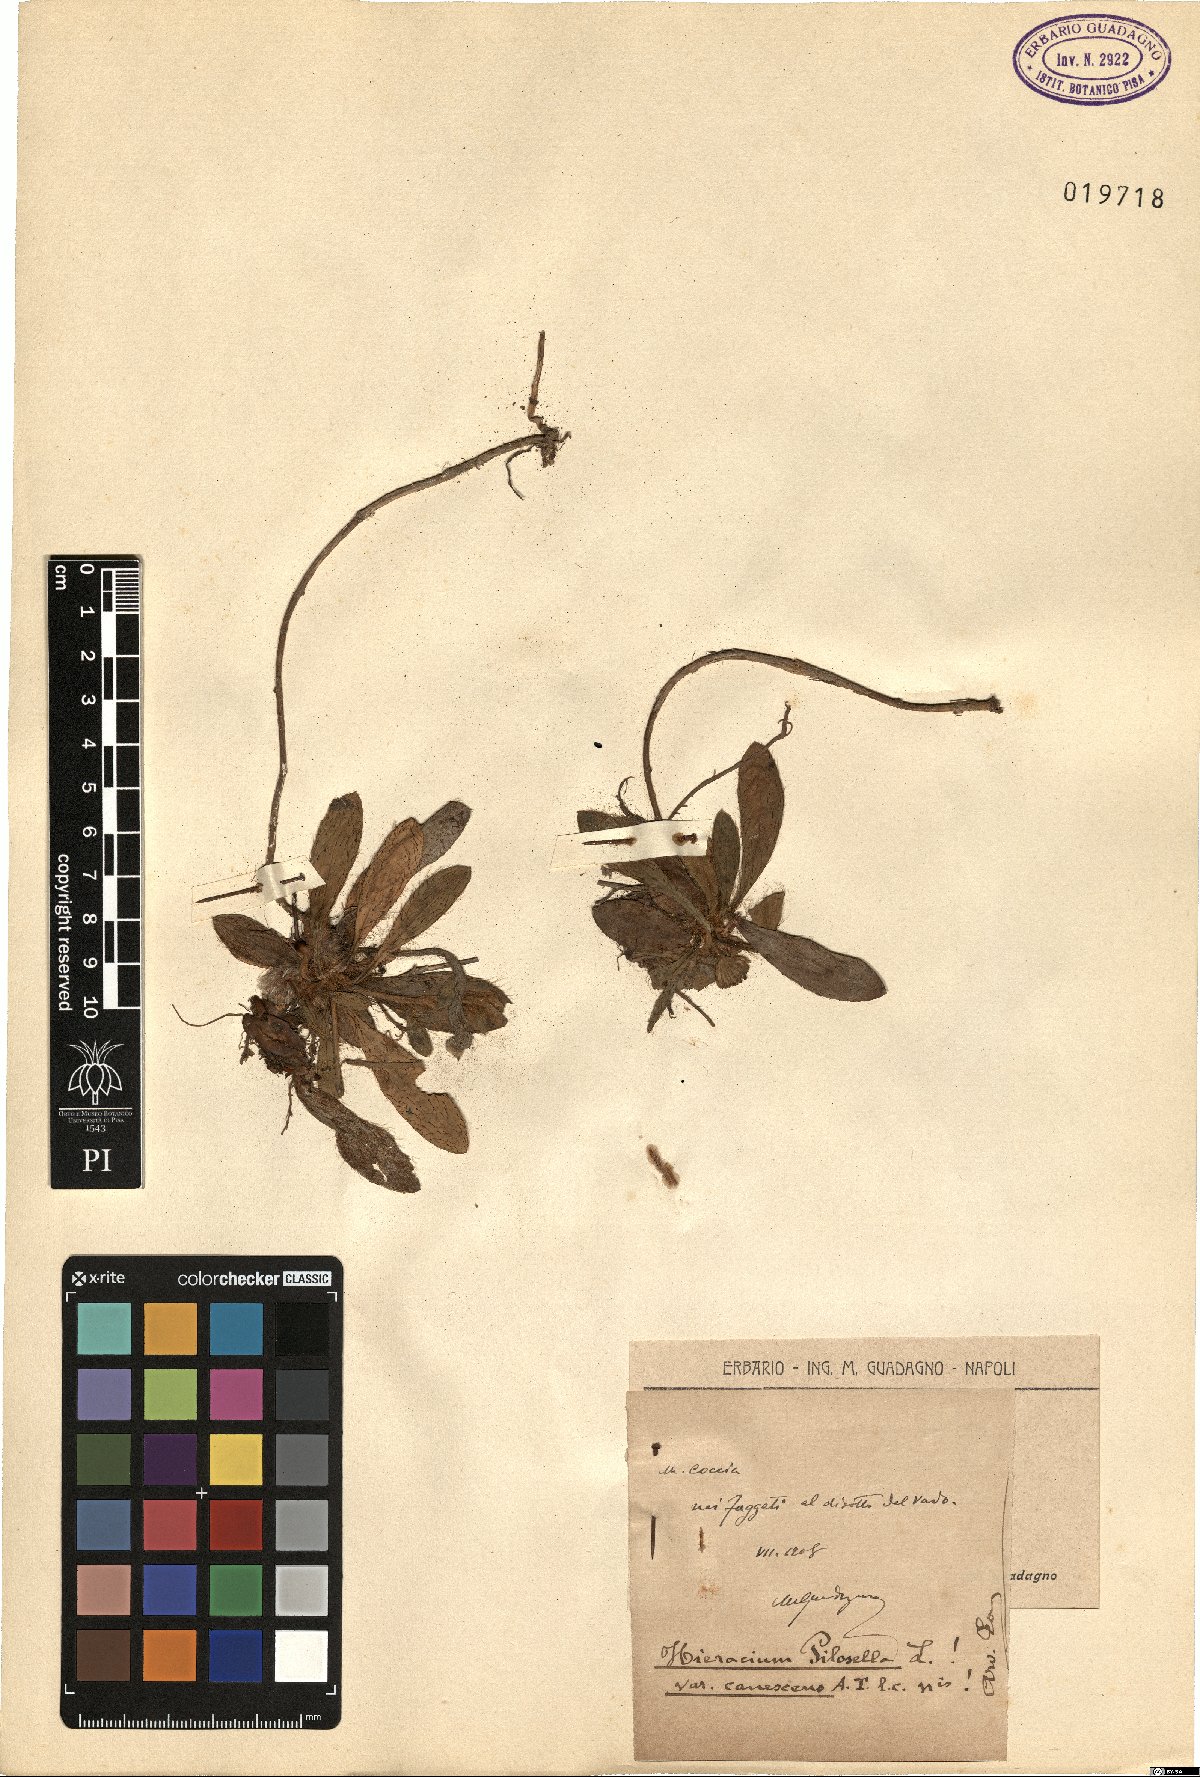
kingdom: Plantae
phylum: Tracheophyta
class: Magnoliopsida
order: Asterales
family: Asteraceae
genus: Pilosella
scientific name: Pilosella officinarum
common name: Mouse-ear hawkweed
